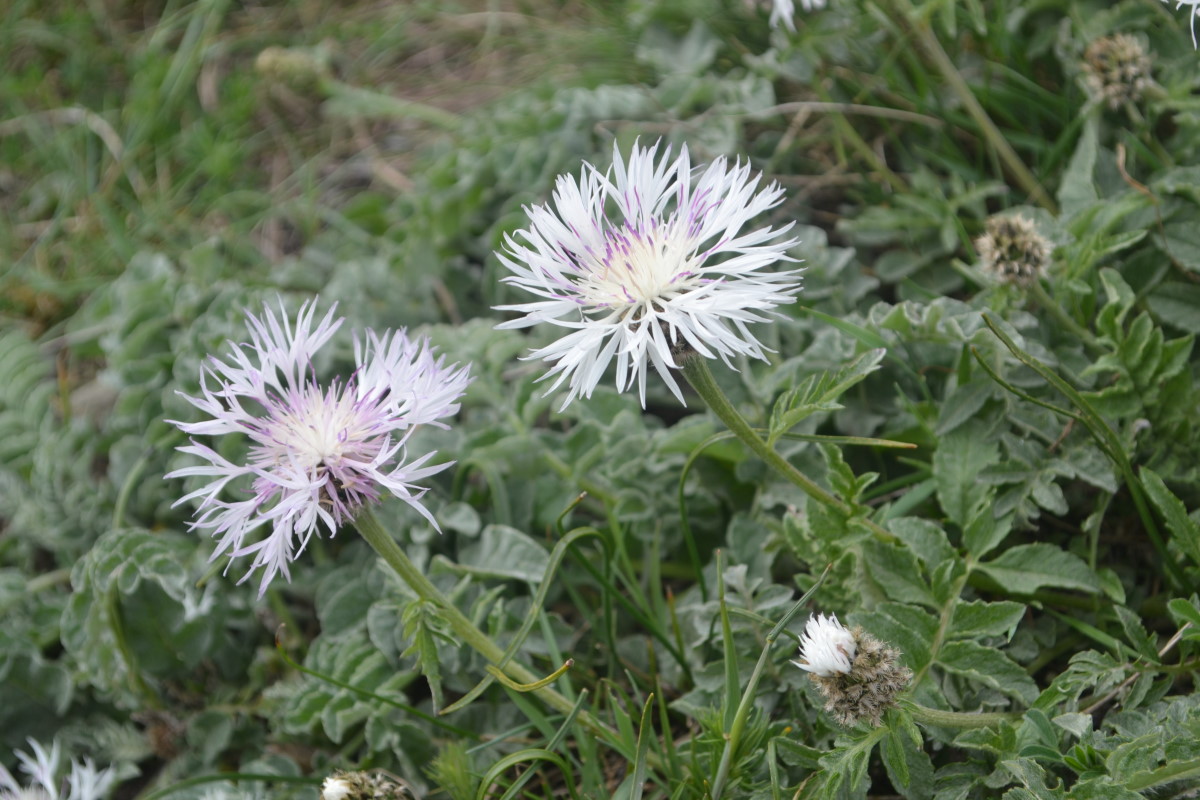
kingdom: Plantae
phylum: Tracheophyta
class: Magnoliopsida
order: Asterales
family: Asteraceae
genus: Psephellus
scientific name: Psephellus declinatus
